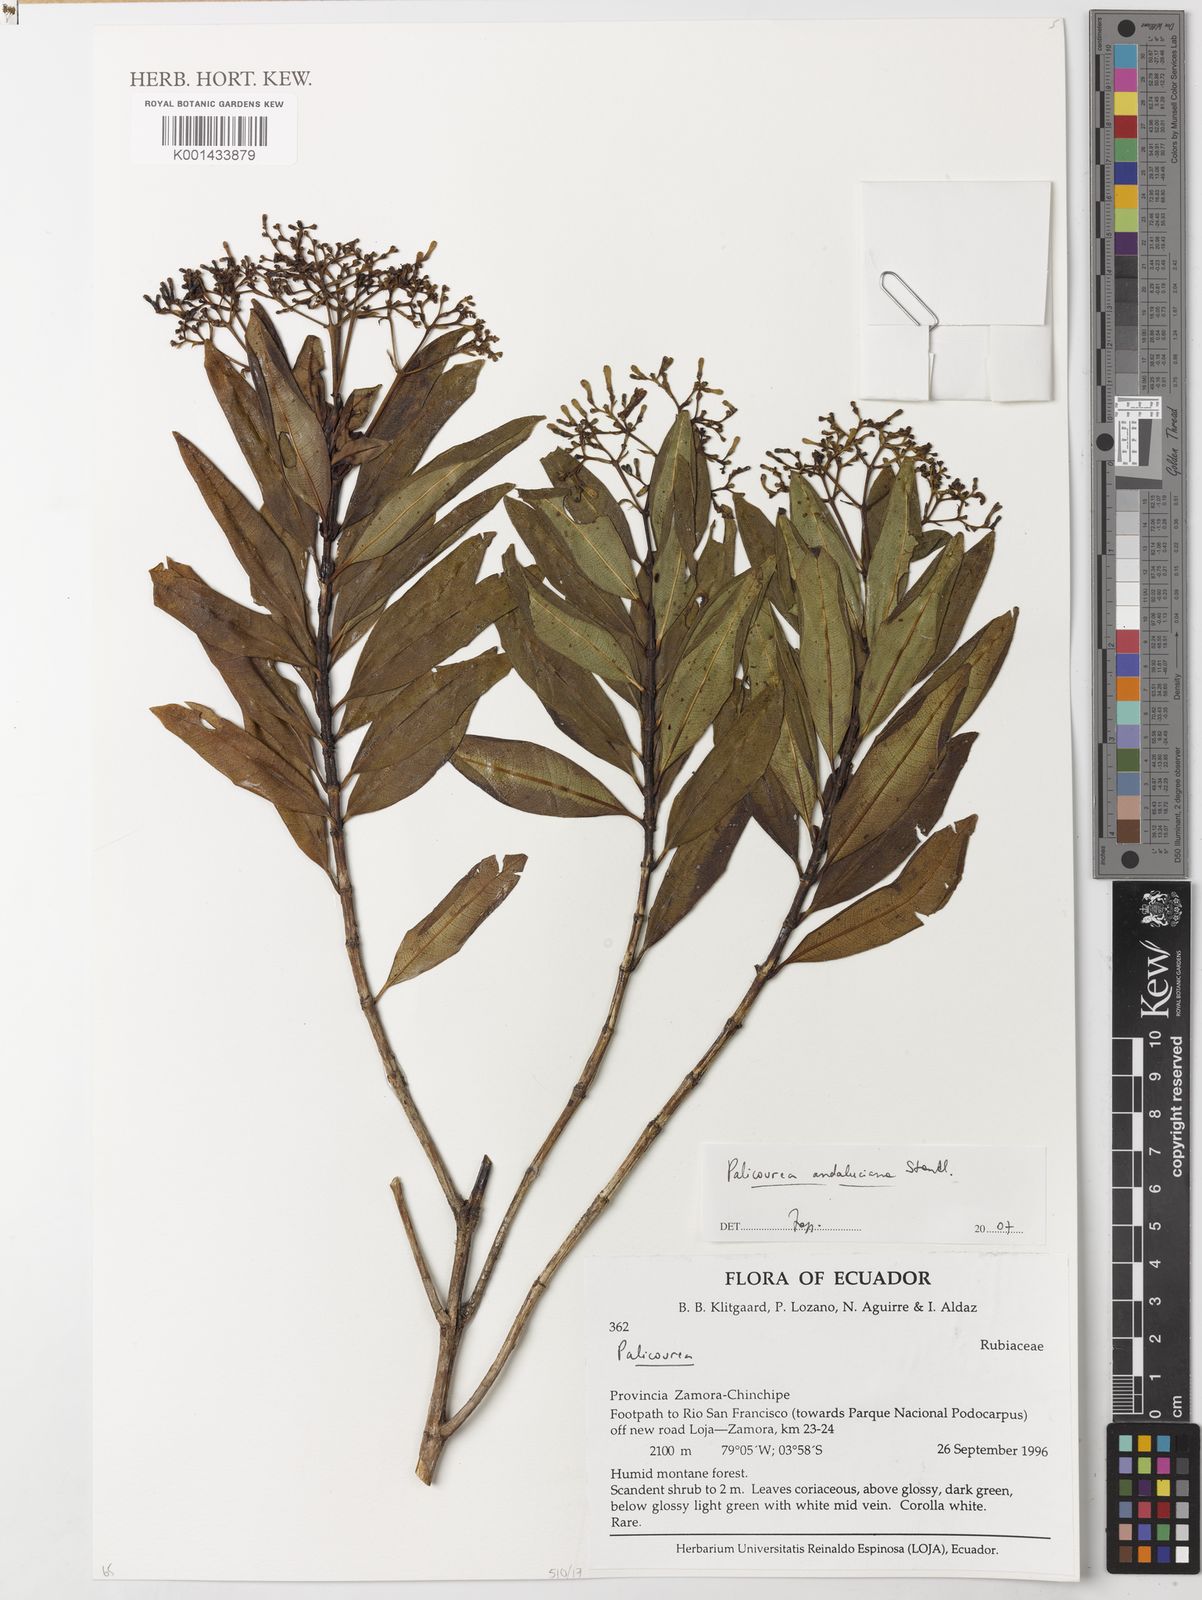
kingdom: Plantae
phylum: Tracheophyta
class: Magnoliopsida
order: Gentianales
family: Rubiaceae
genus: Palicourea
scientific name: Palicourea andaluciana
